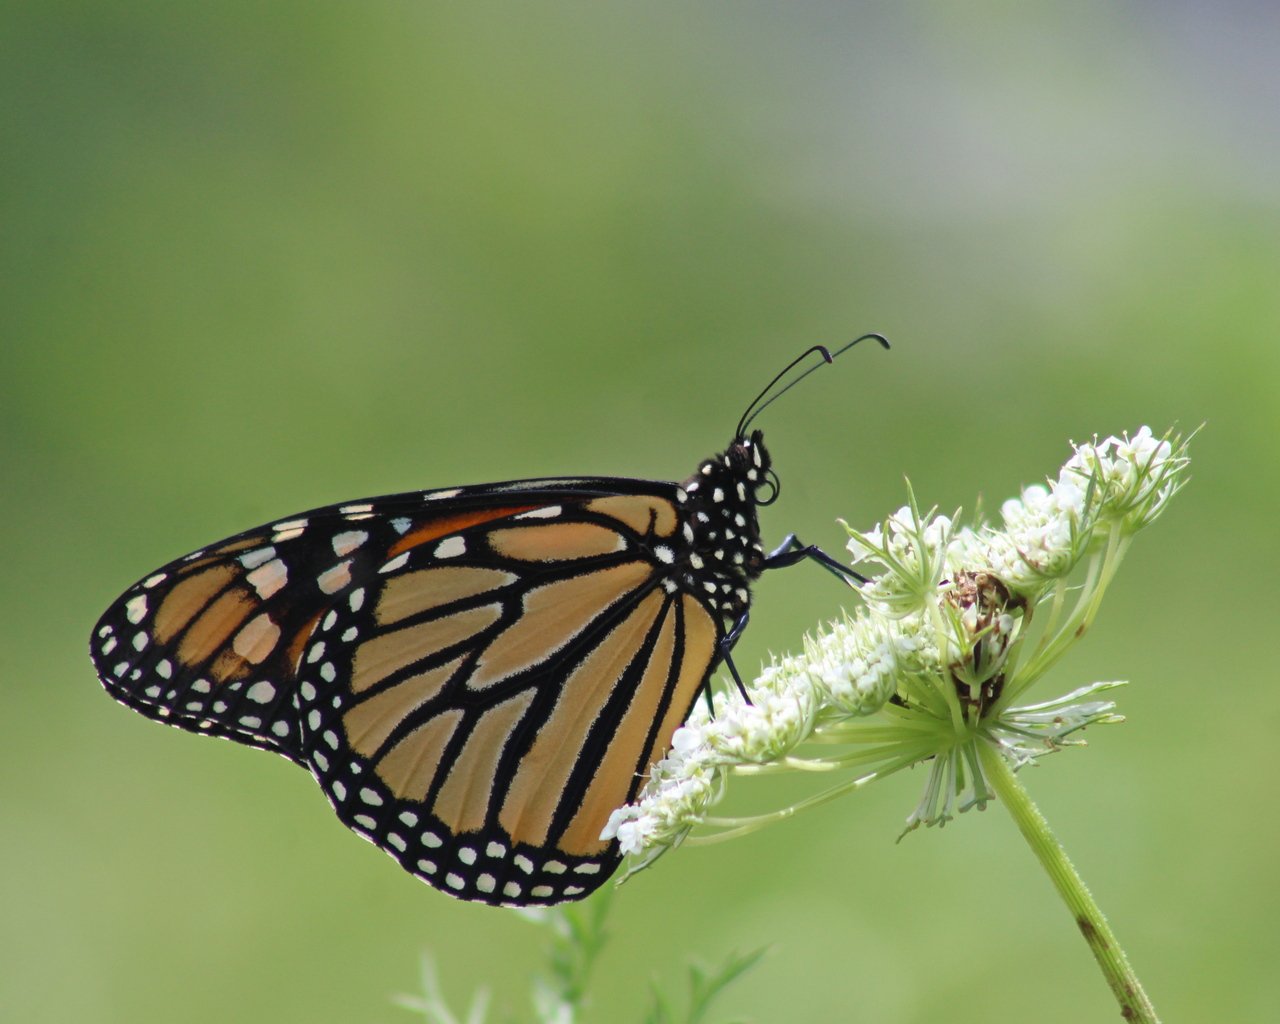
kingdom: Animalia
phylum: Arthropoda
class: Insecta
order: Lepidoptera
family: Nymphalidae
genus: Danaus
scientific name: Danaus plexippus
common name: Monarch
